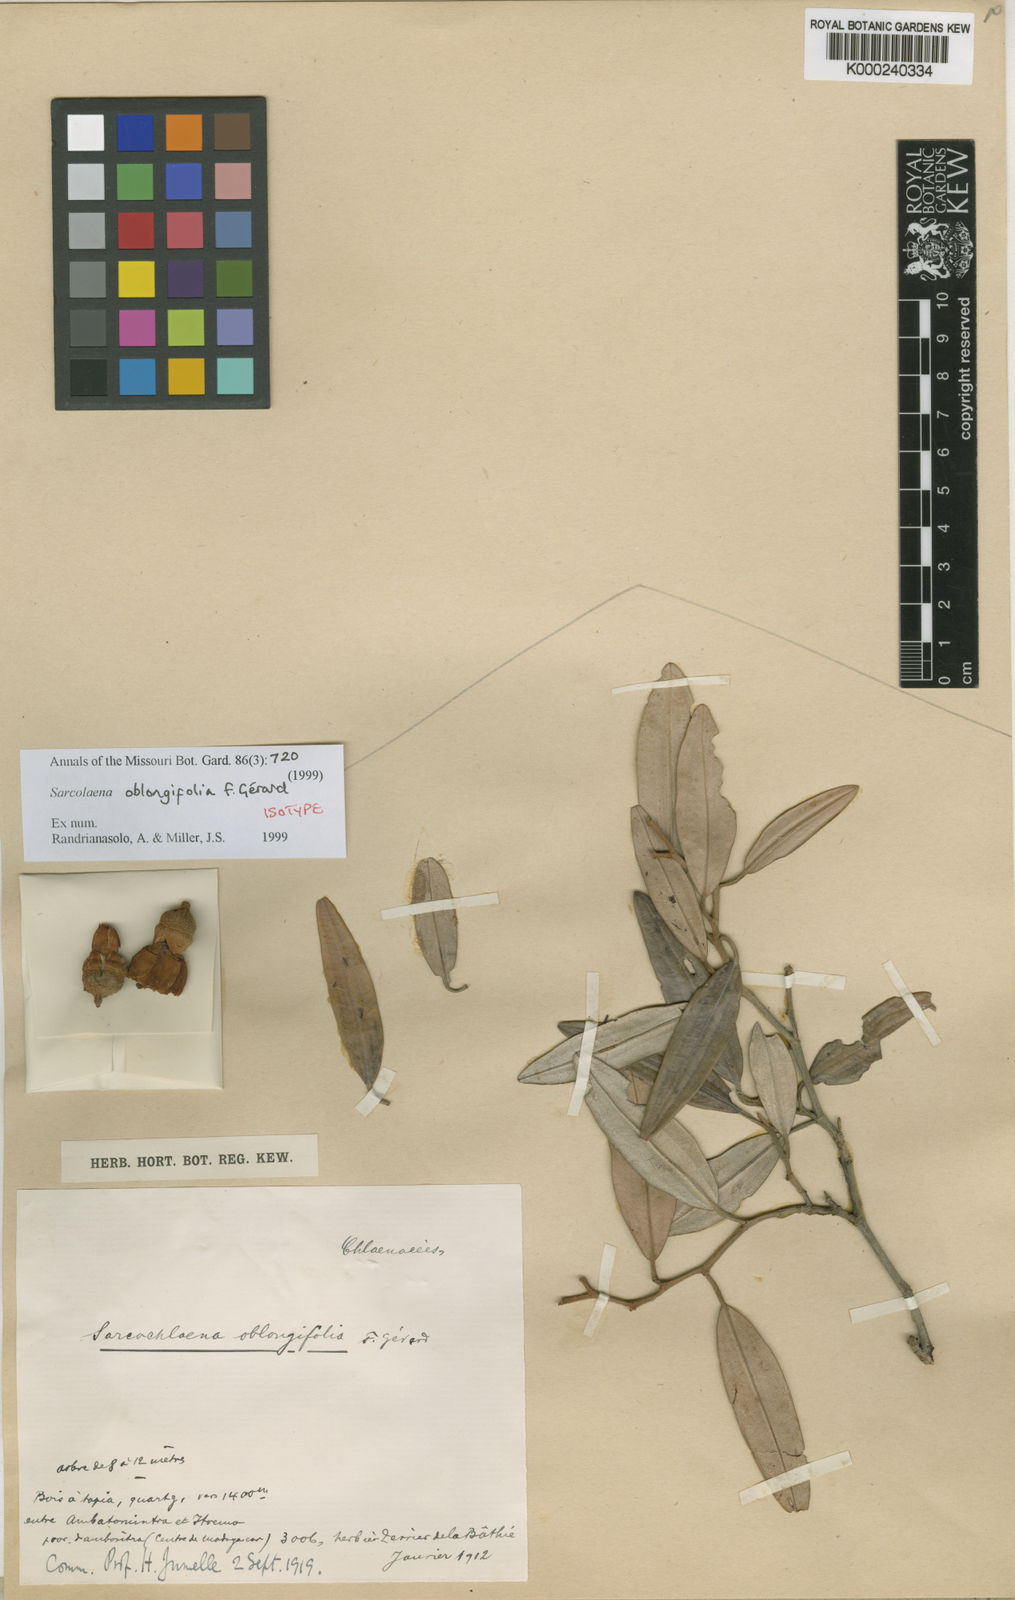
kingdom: Plantae
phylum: Tracheophyta
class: Magnoliopsida
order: Malvales
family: Sarcolaenaceae
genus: Sarcolaena
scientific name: Sarcolaena
